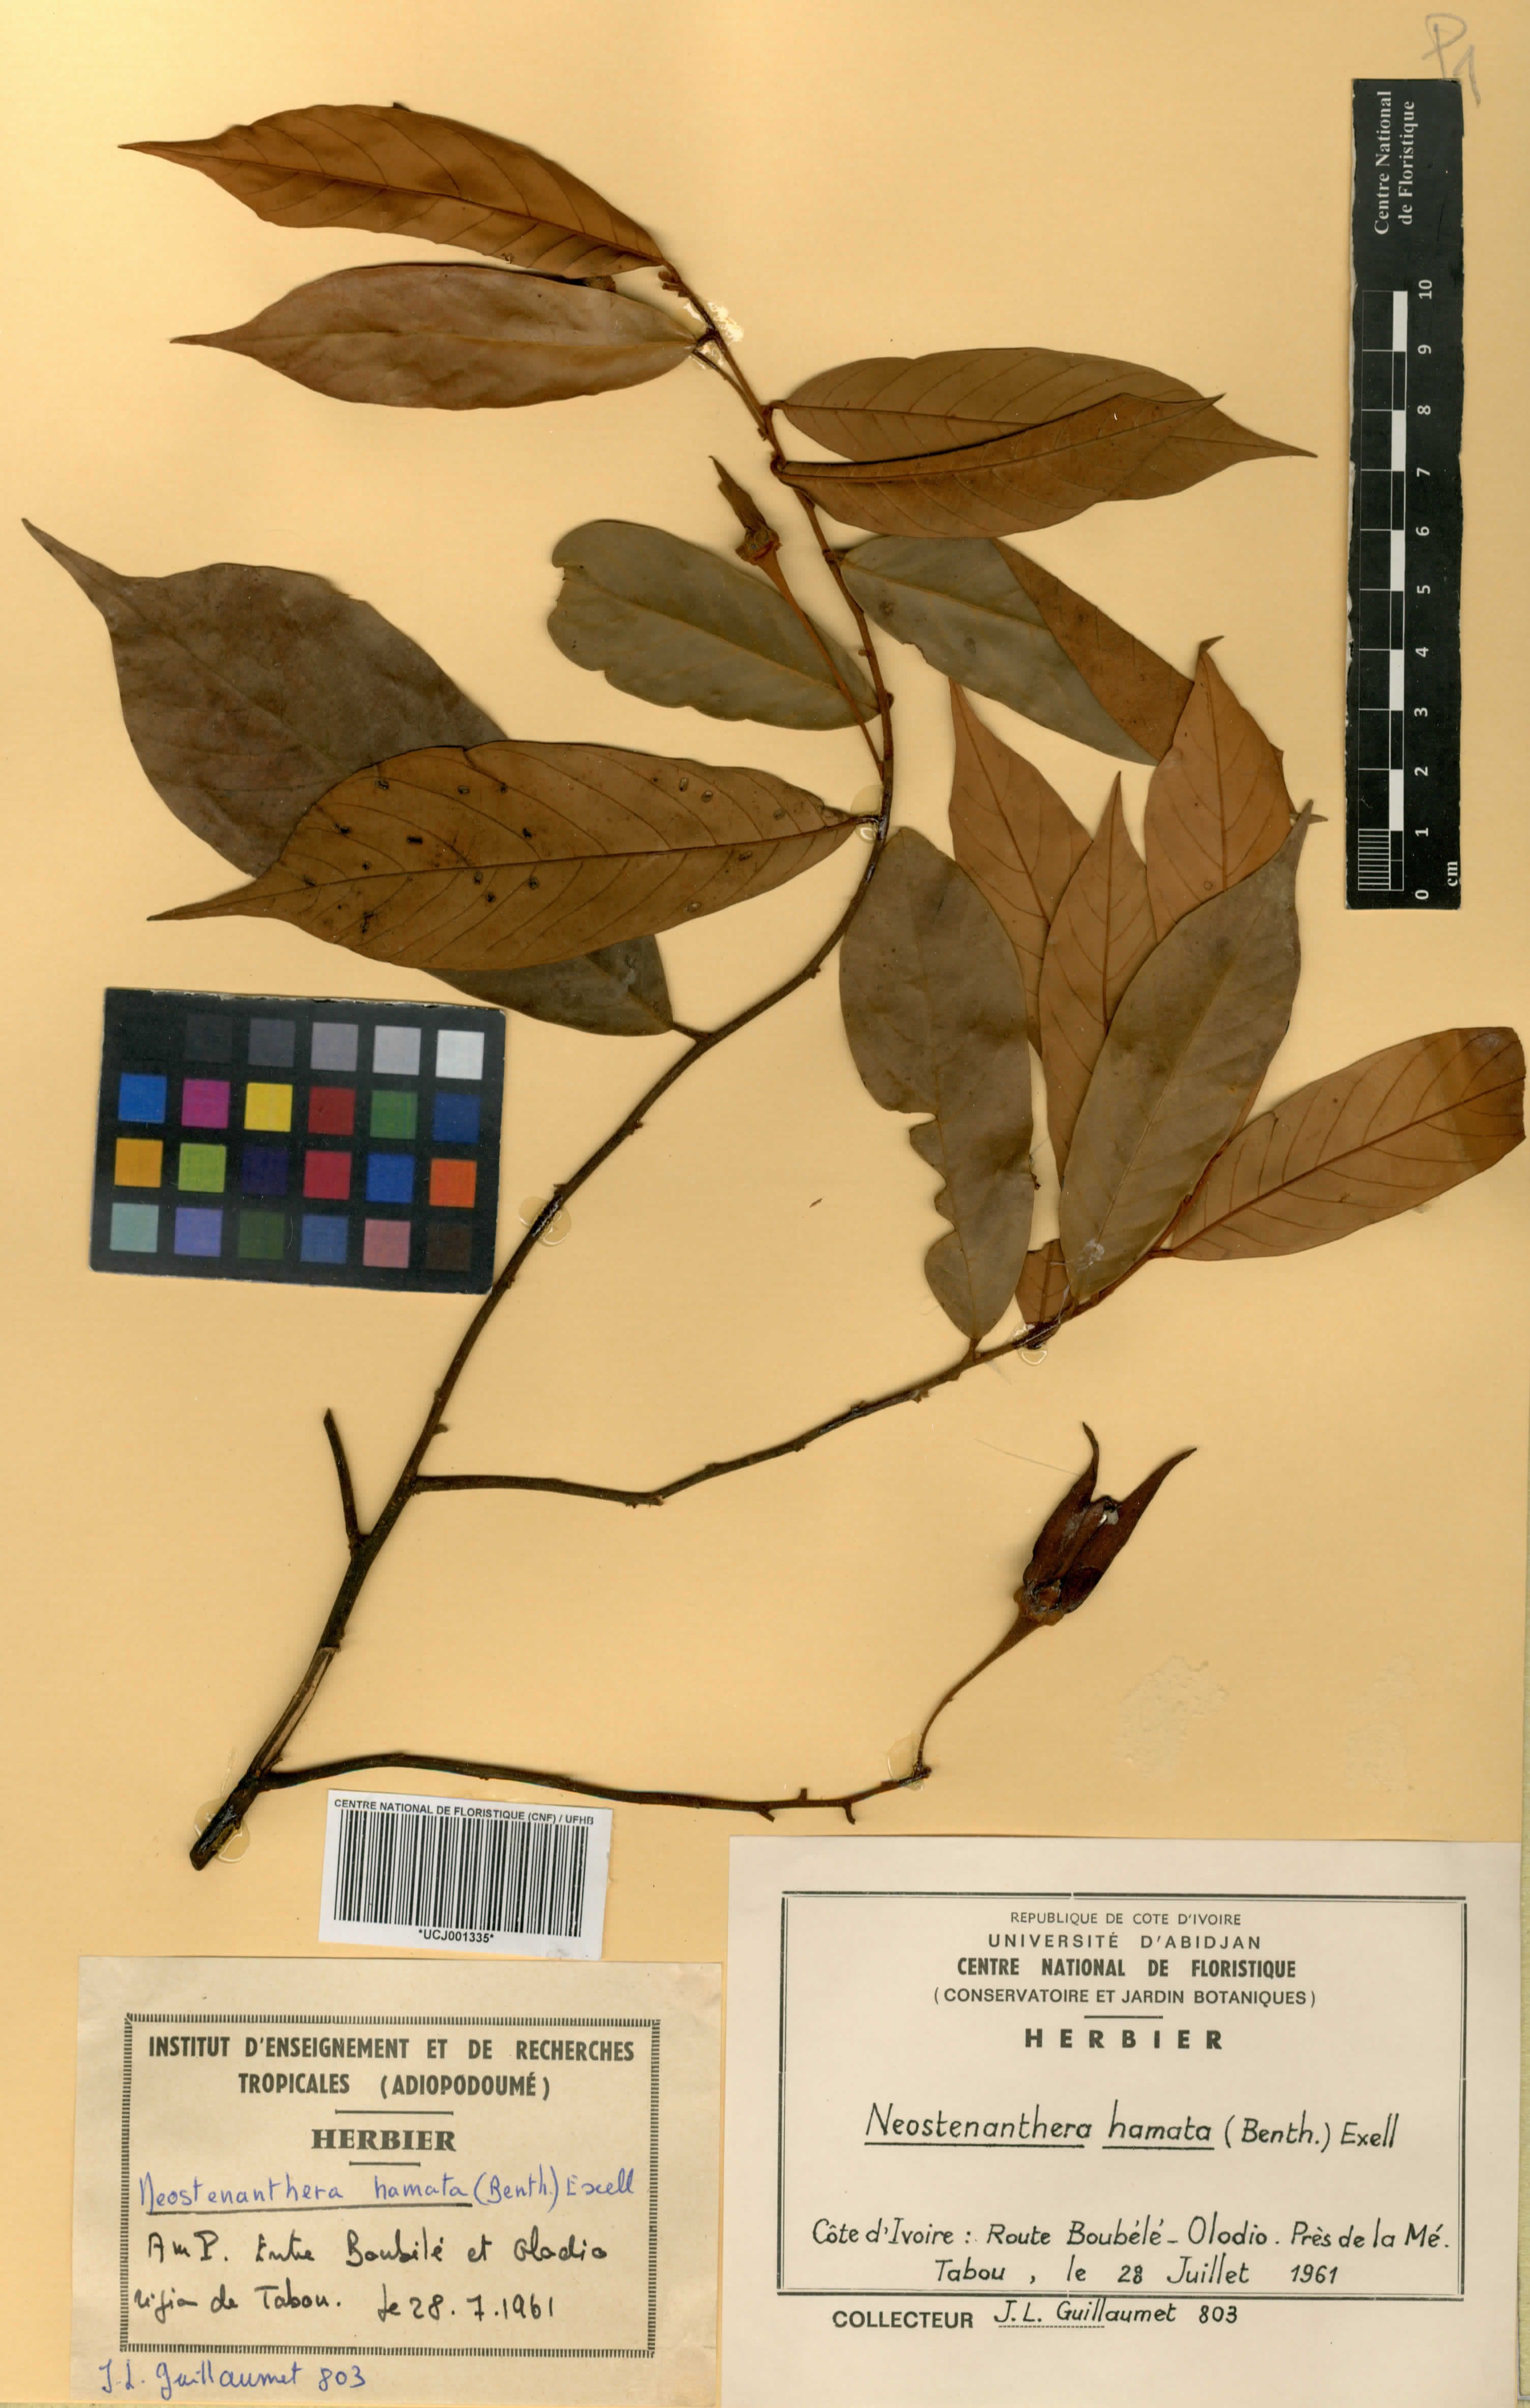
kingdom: Plantae
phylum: Tracheophyta
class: Magnoliopsida
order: Magnoliales
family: Annonaceae
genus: Neostenanthera
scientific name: Neostenanthera hamata
